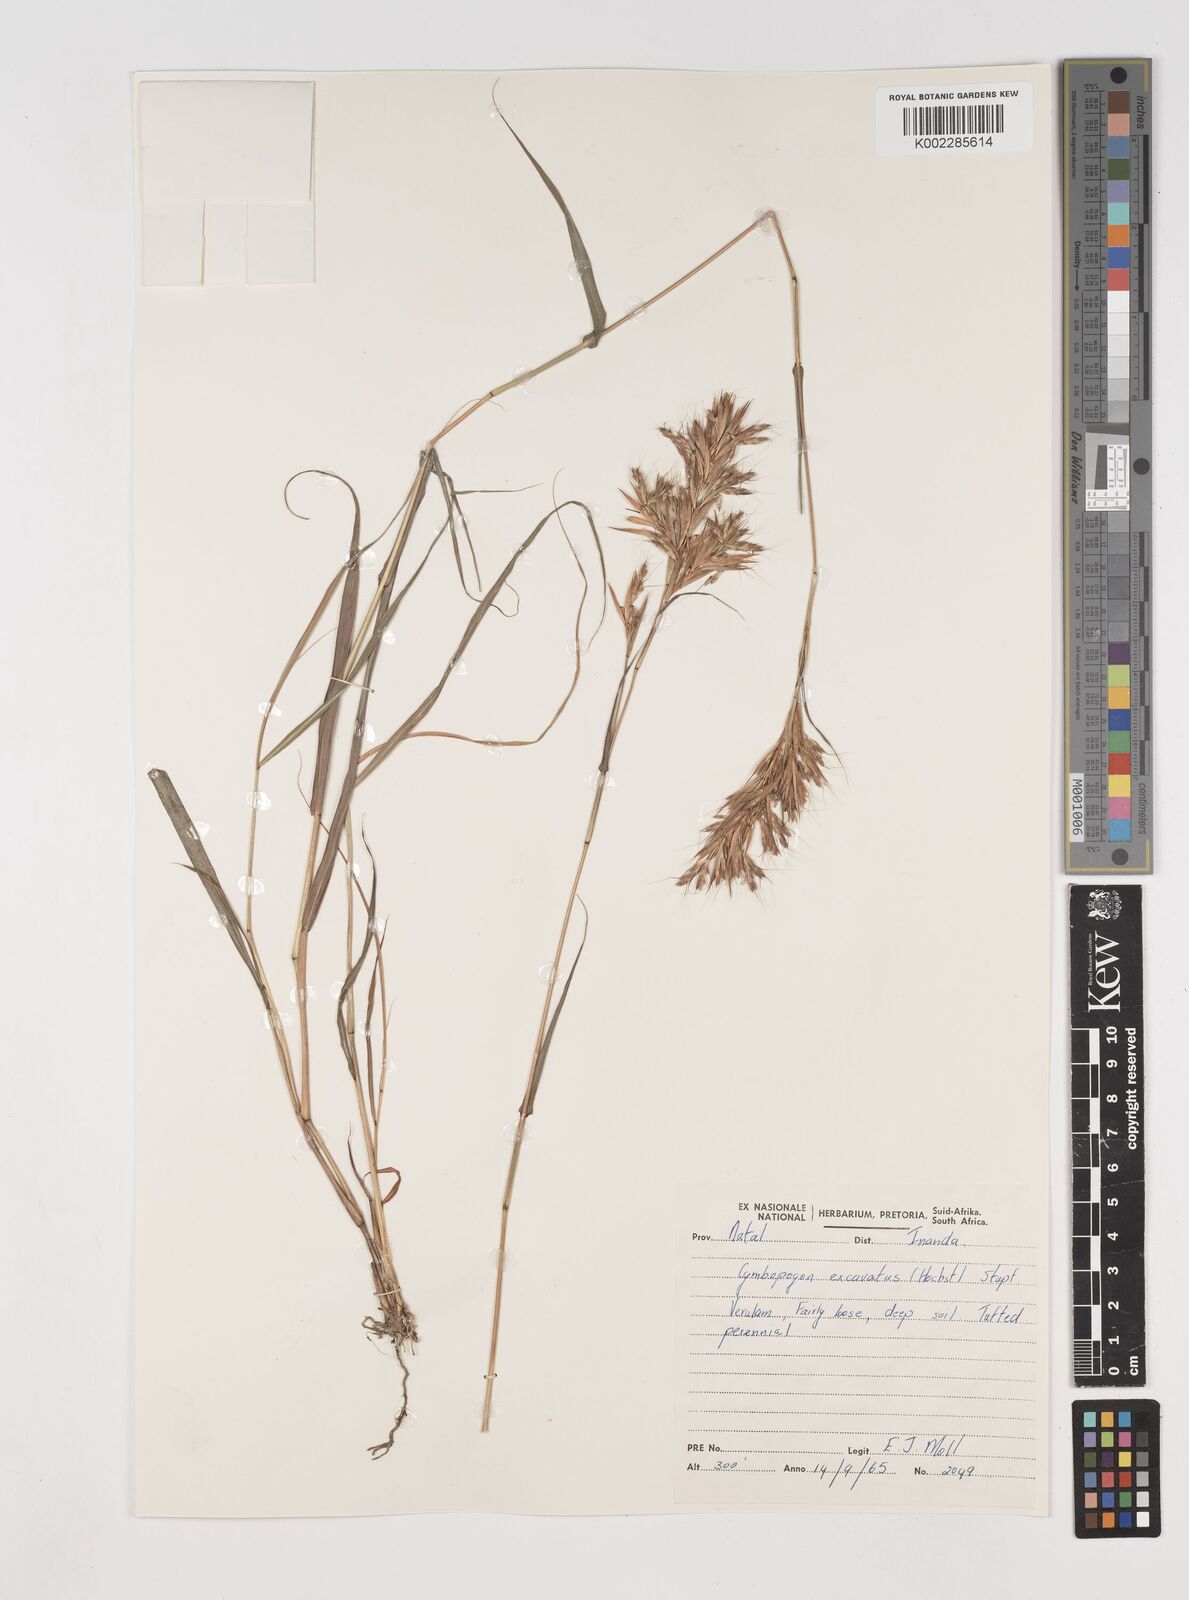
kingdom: Plantae
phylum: Tracheophyta
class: Liliopsida
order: Poales
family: Poaceae
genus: Cymbopogon
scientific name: Cymbopogon caesius
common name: Kachi grass
